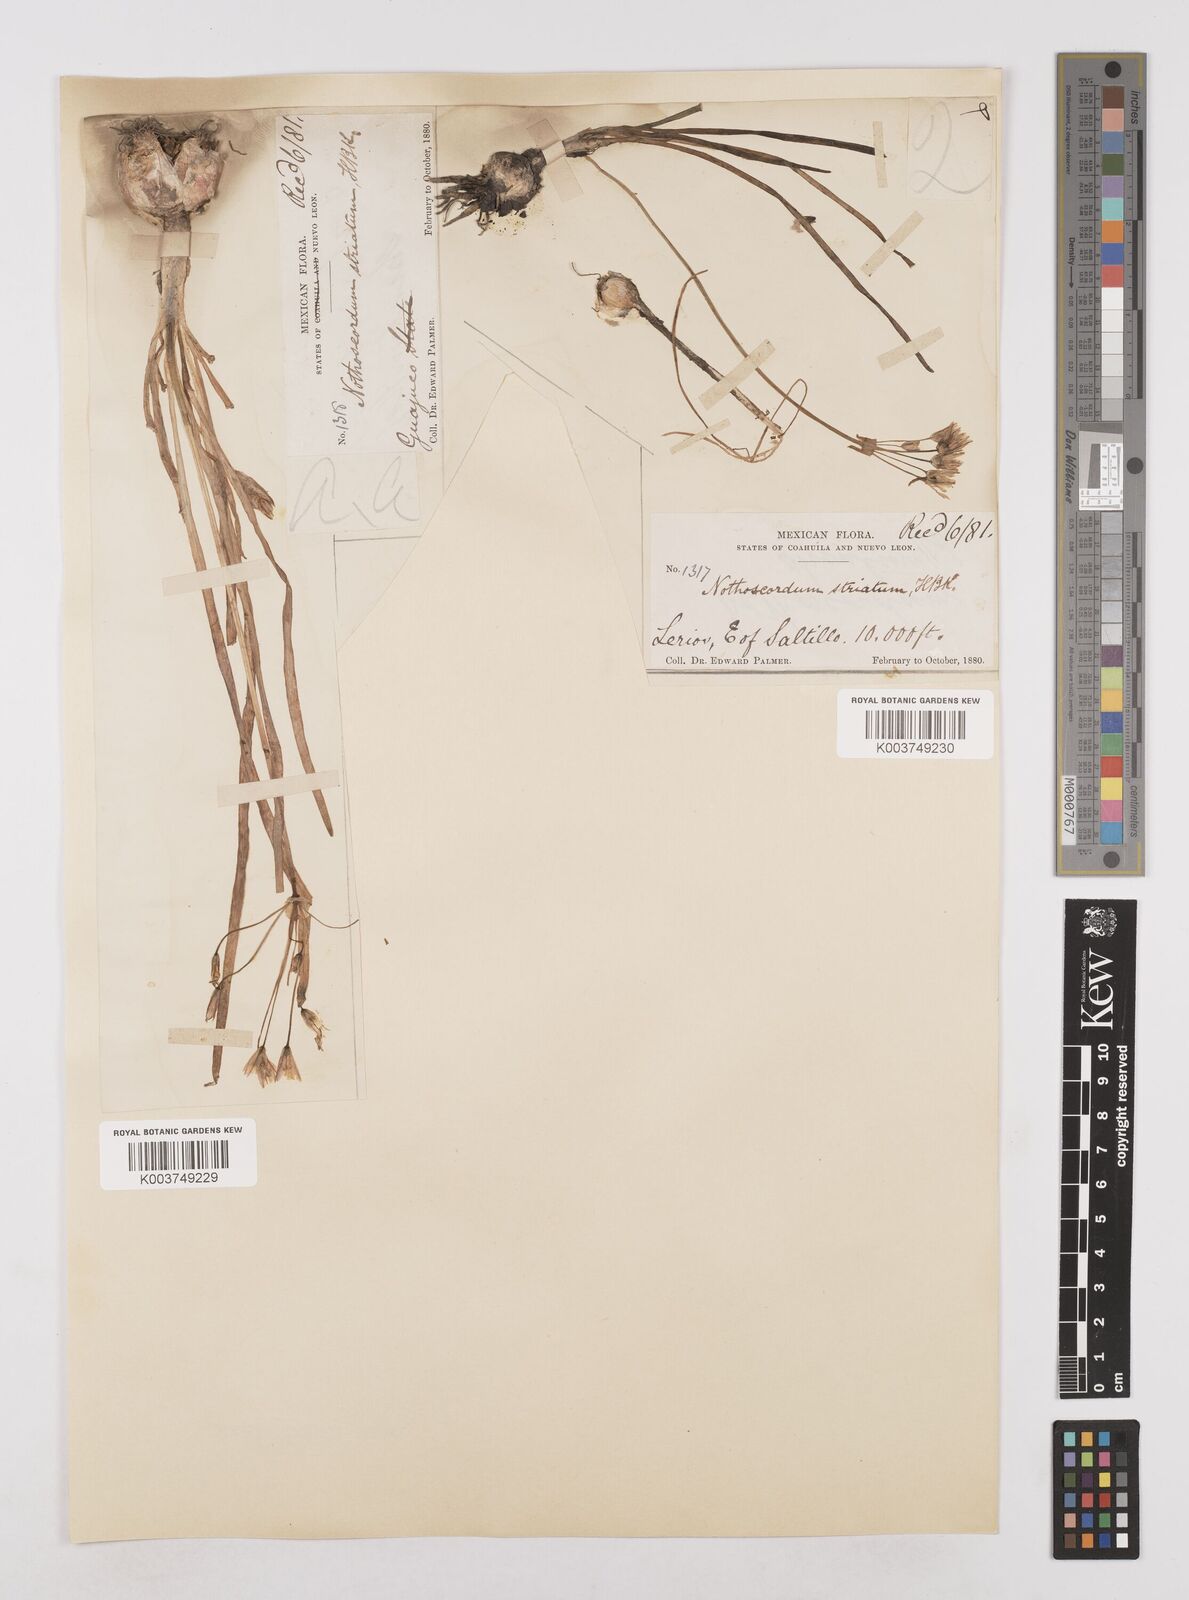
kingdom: Plantae
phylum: Tracheophyta
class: Liliopsida
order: Asparagales
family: Amaryllidaceae
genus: Nothoscordum
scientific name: Nothoscordum bivalve
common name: Crow-poison
